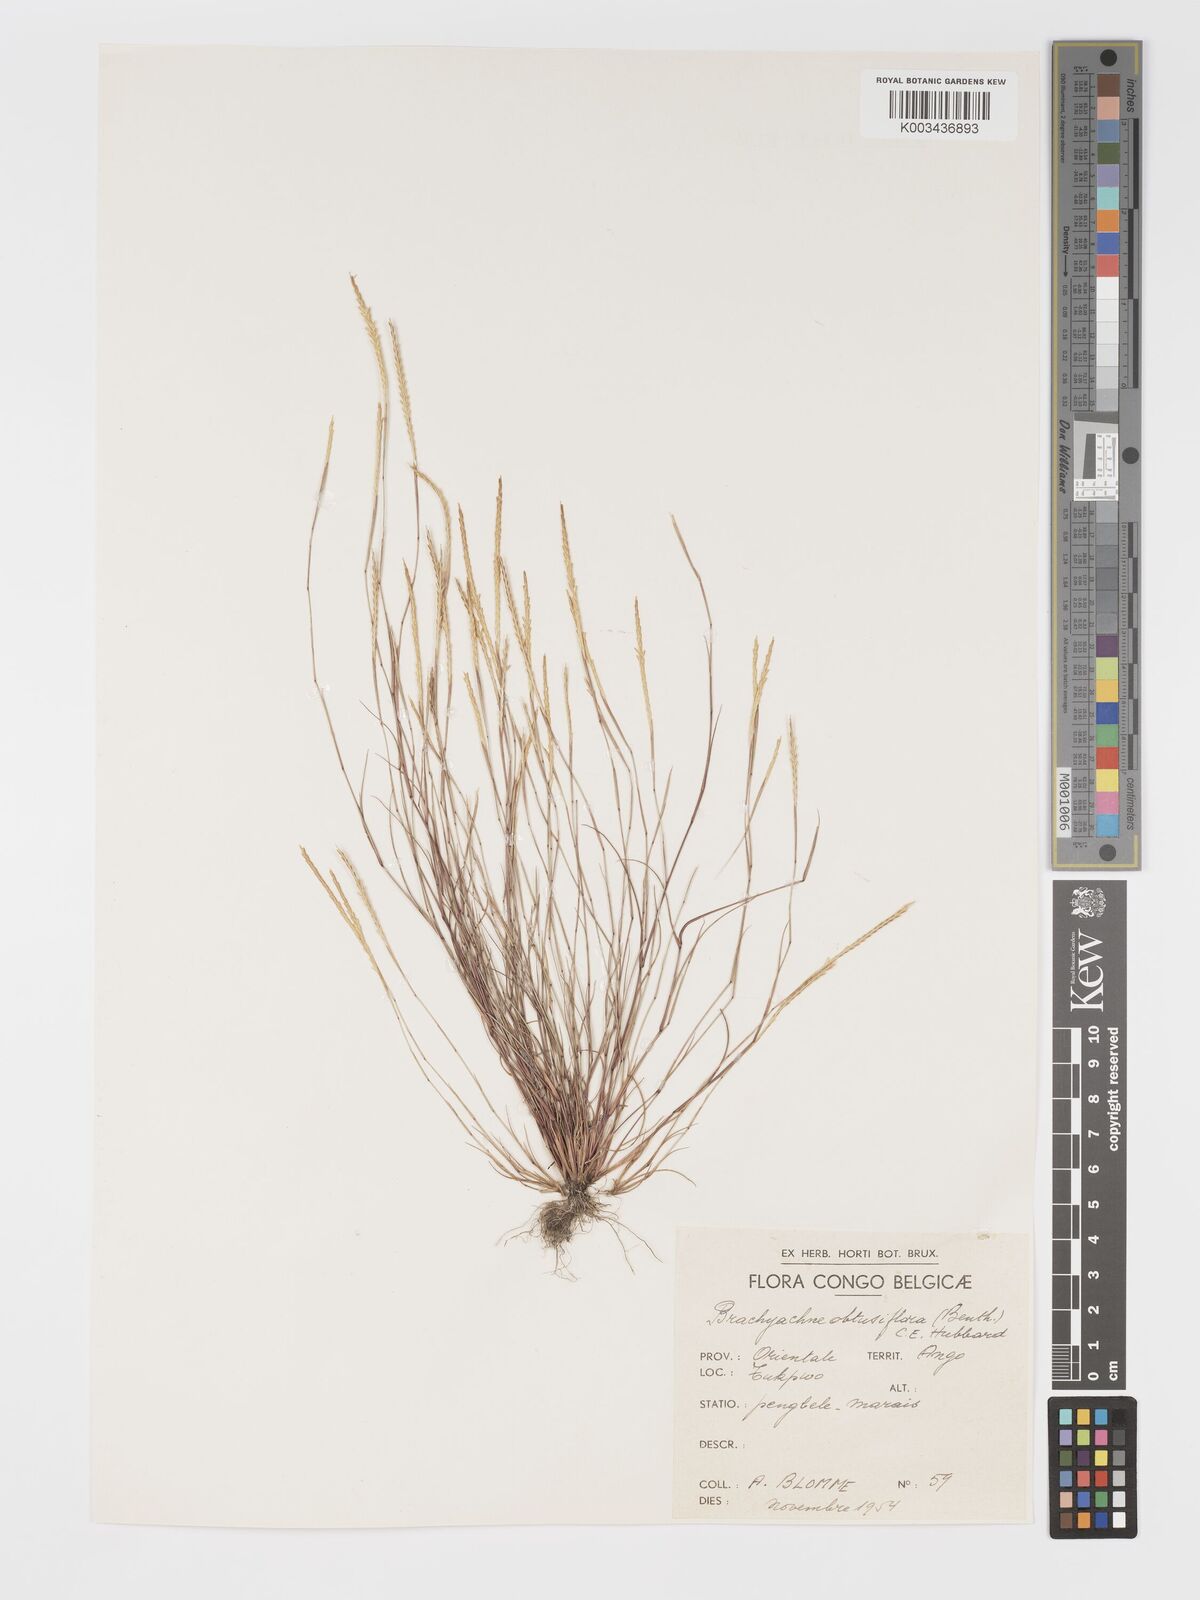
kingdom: Plantae
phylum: Tracheophyta
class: Liliopsida
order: Poales
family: Poaceae
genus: Micrachne
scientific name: Micrachne obtusiflora
